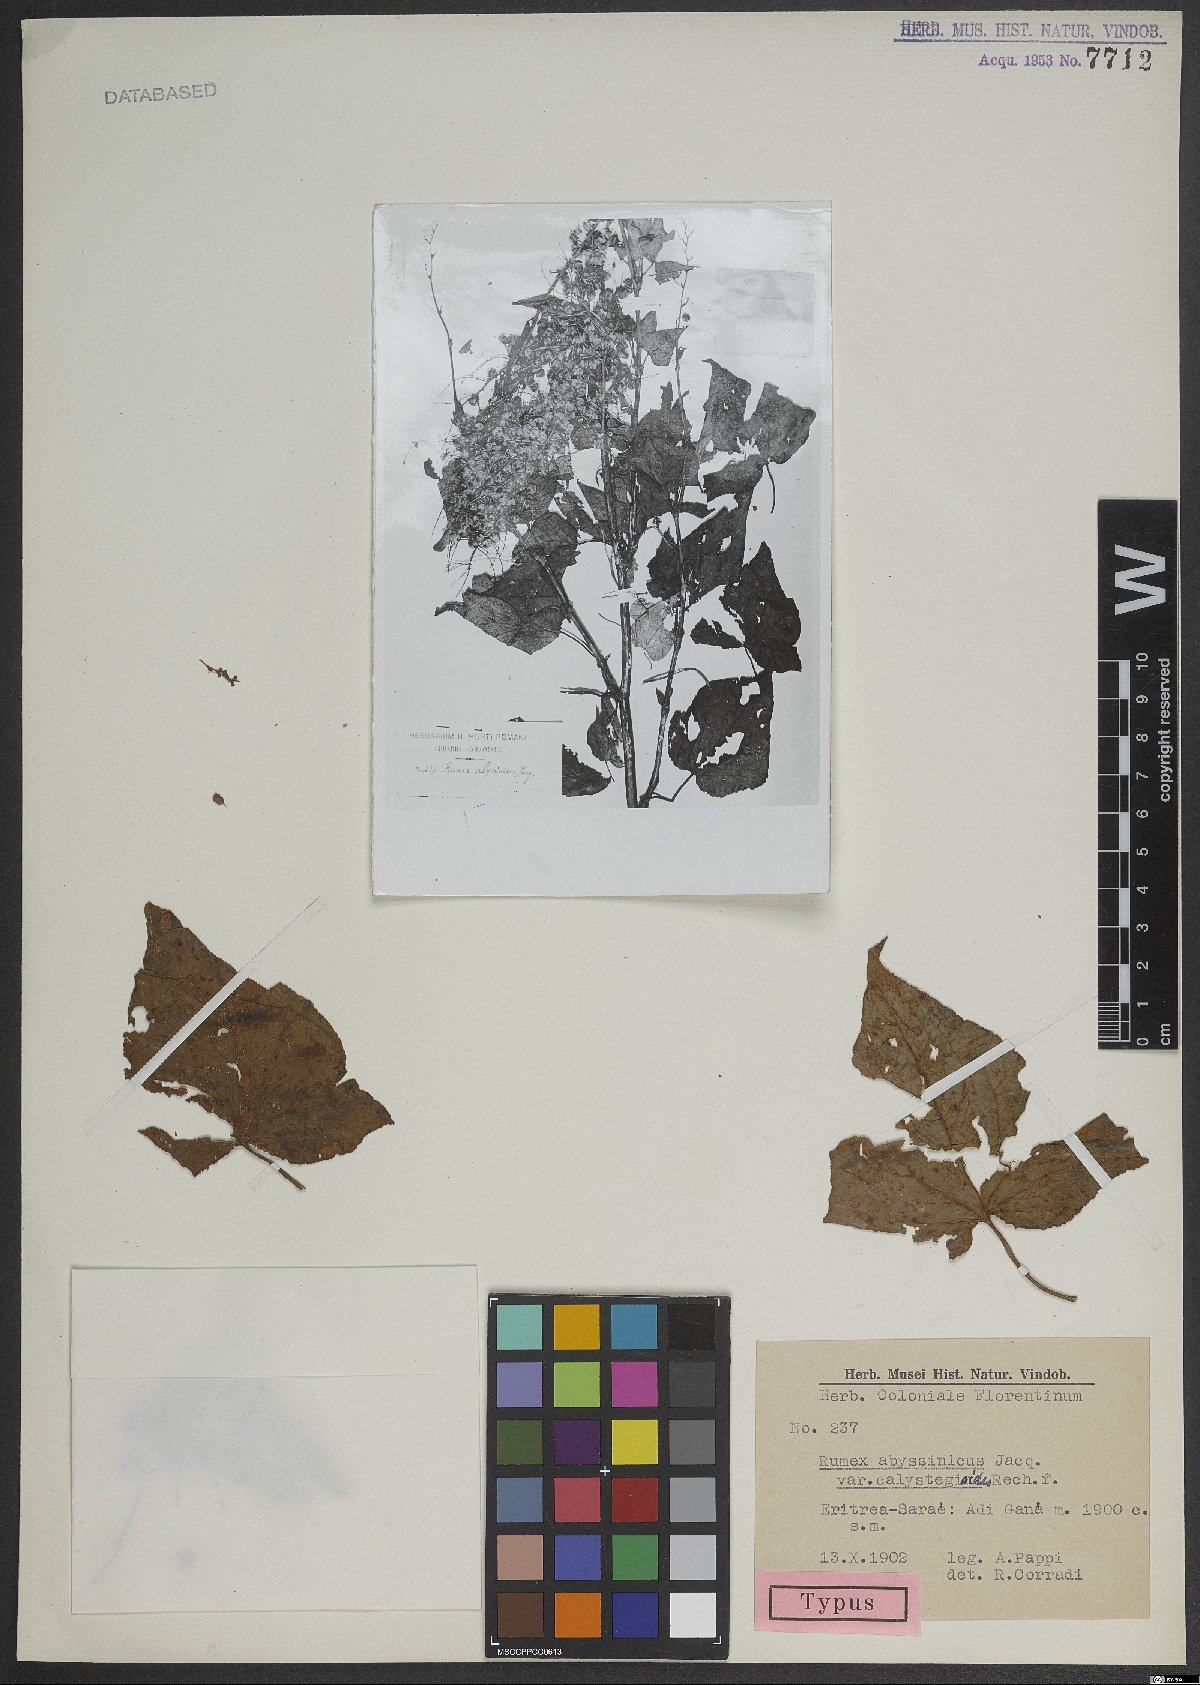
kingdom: Plantae
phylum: Tracheophyta
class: Magnoliopsida
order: Caryophyllales
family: Polygonaceae
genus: Rumex
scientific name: Rumex abyssinicus
